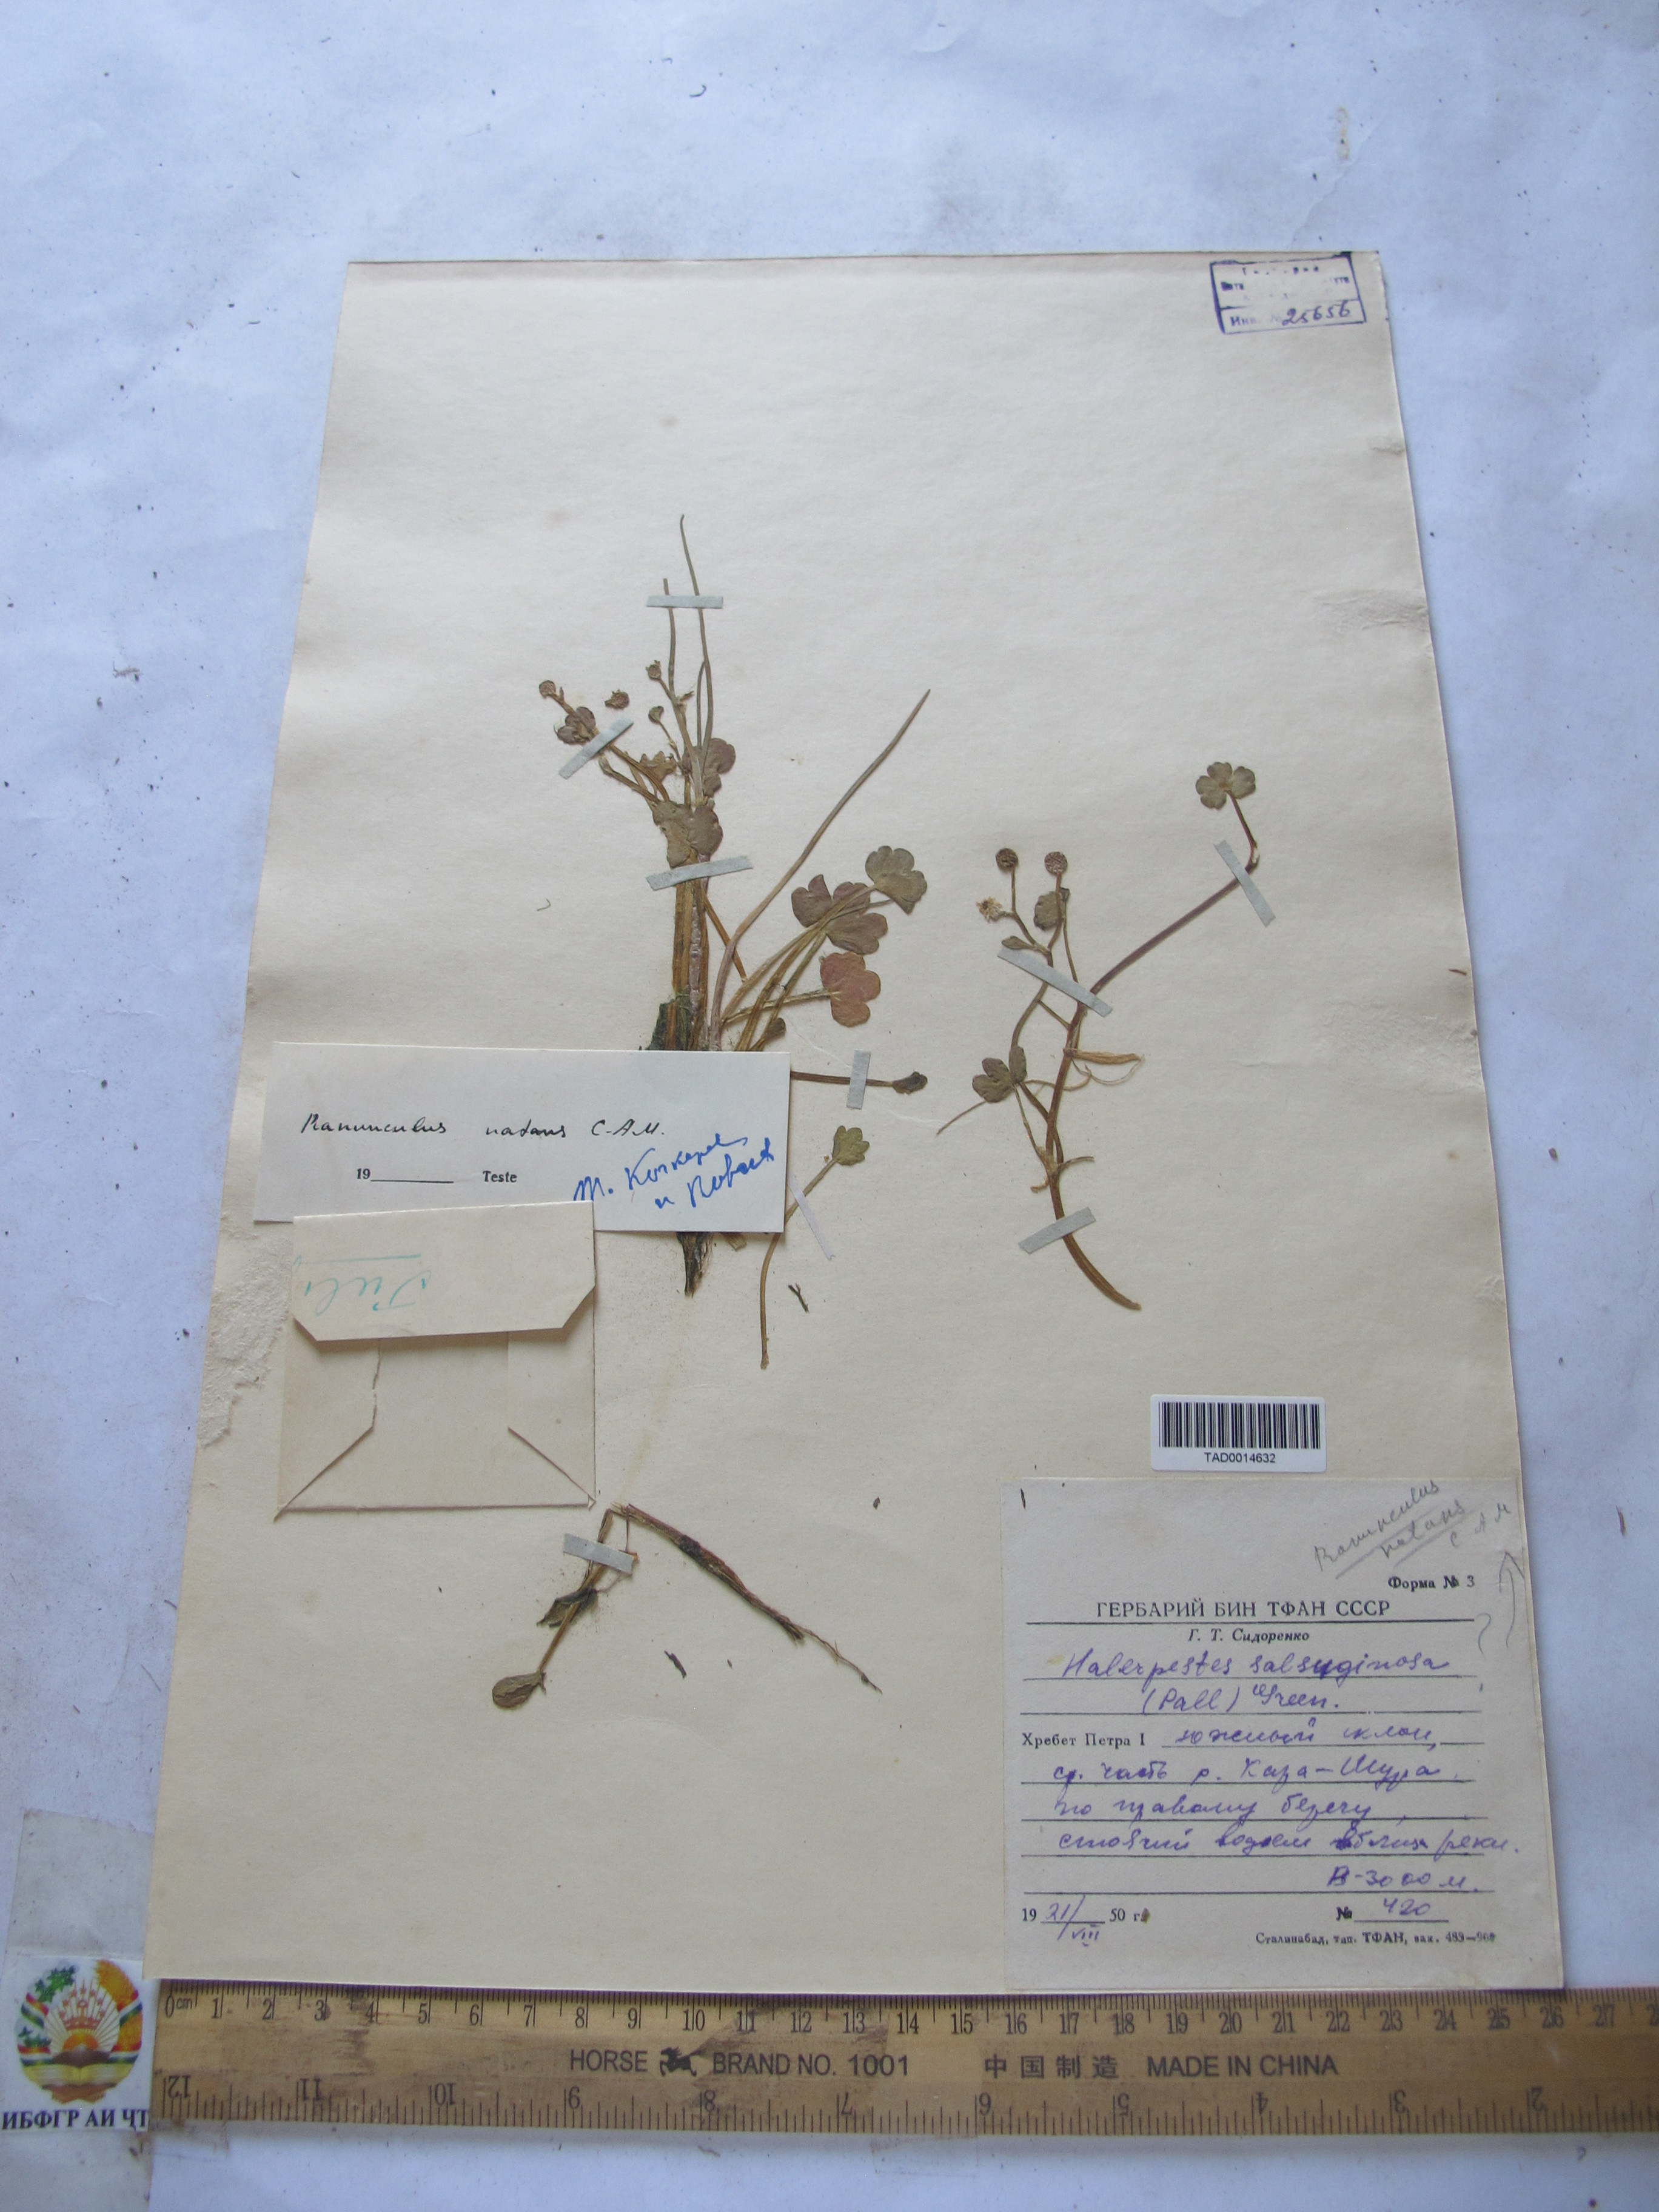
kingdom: Plantae
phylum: Tracheophyta
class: Magnoliopsida
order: Ranunculales
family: Ranunculaceae
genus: Ranunculus
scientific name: Ranunculus natans
